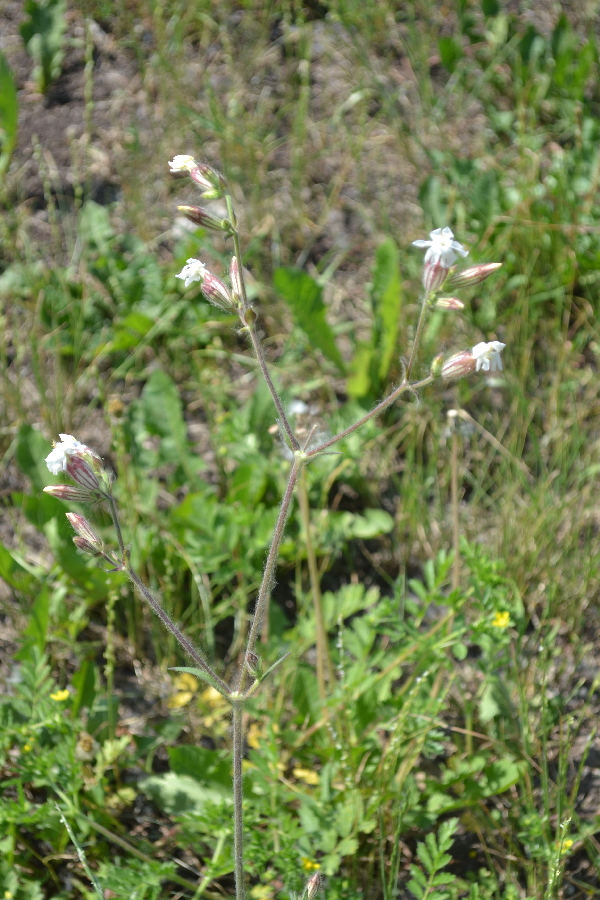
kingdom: Plantae
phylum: Tracheophyta
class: Magnoliopsida
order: Caryophyllales
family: Caryophyllaceae
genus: Silene
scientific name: Silene behen
